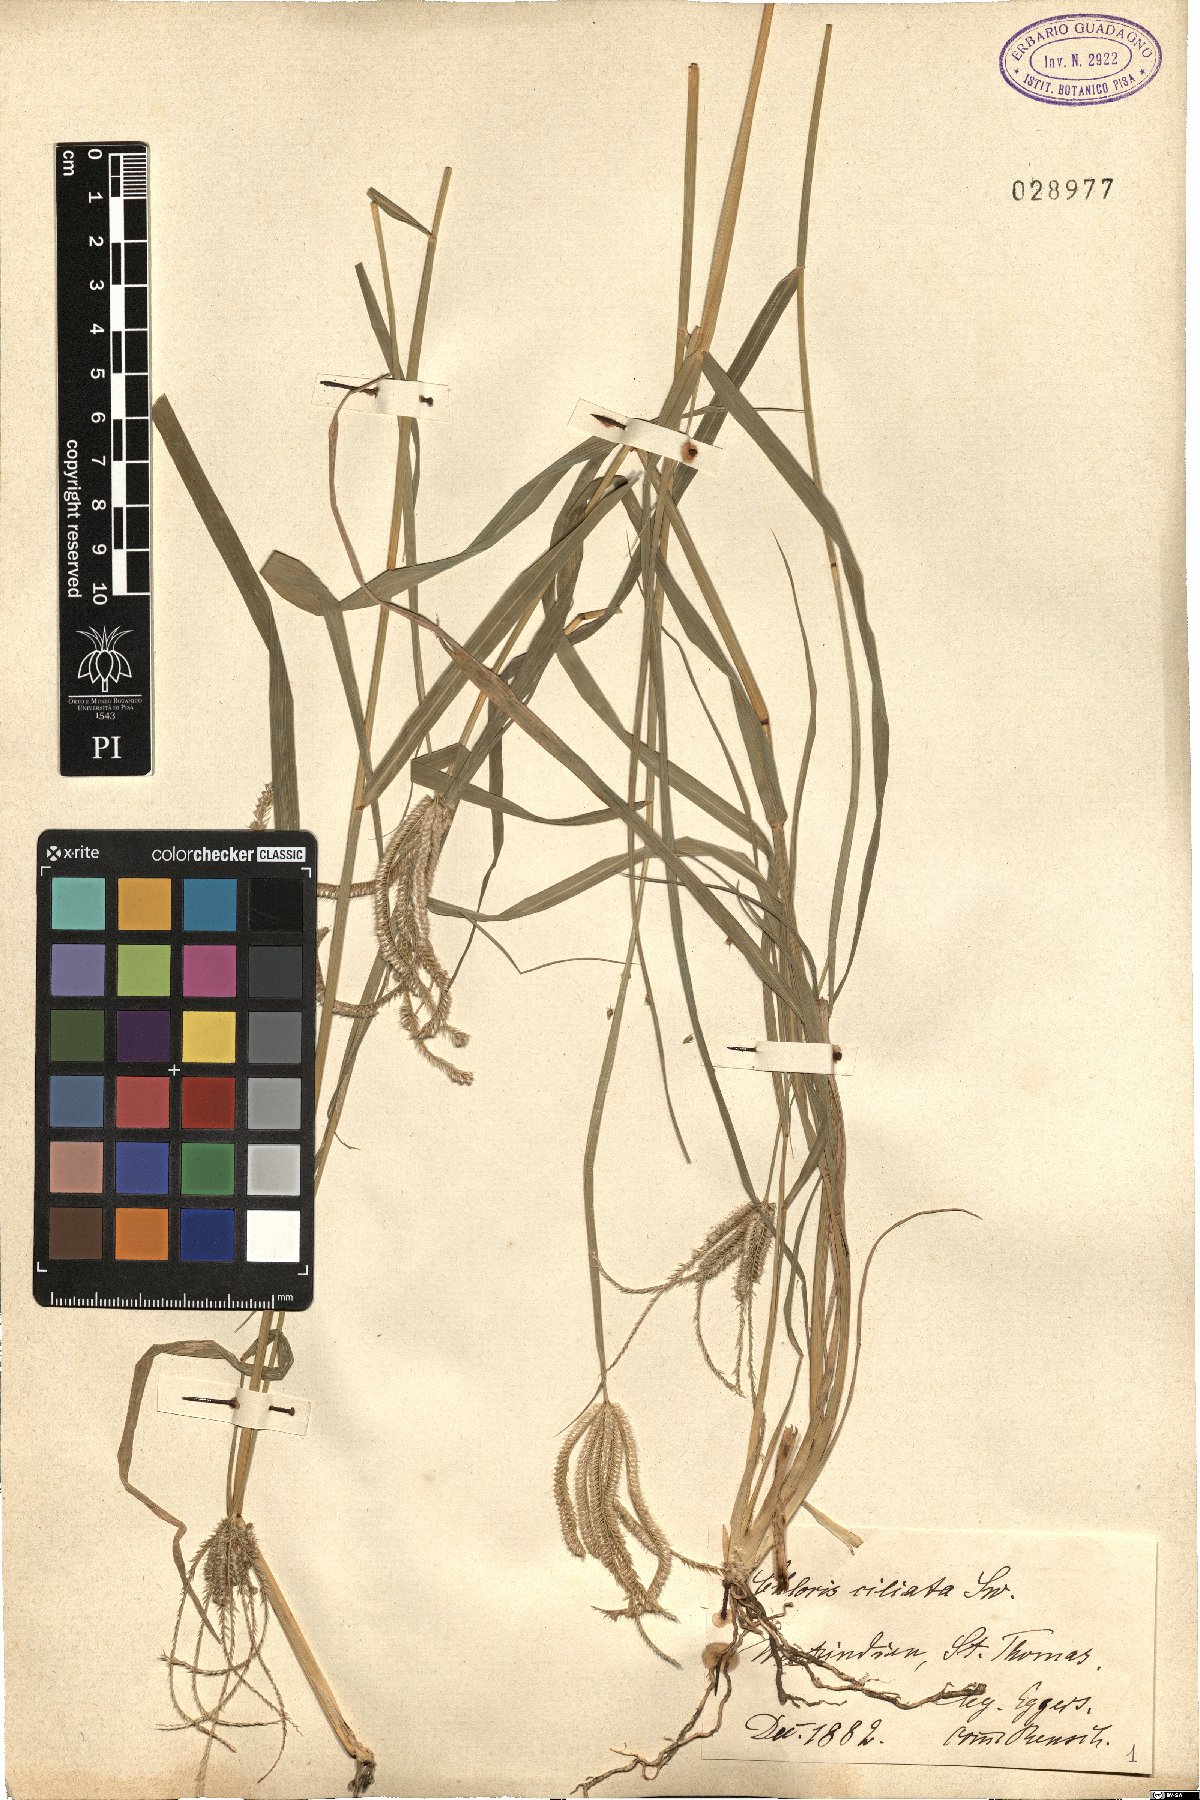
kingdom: Plantae
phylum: Tracheophyta
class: Liliopsida
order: Poales
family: Poaceae
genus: Stapfochloa
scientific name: Stapfochloa ciliata
